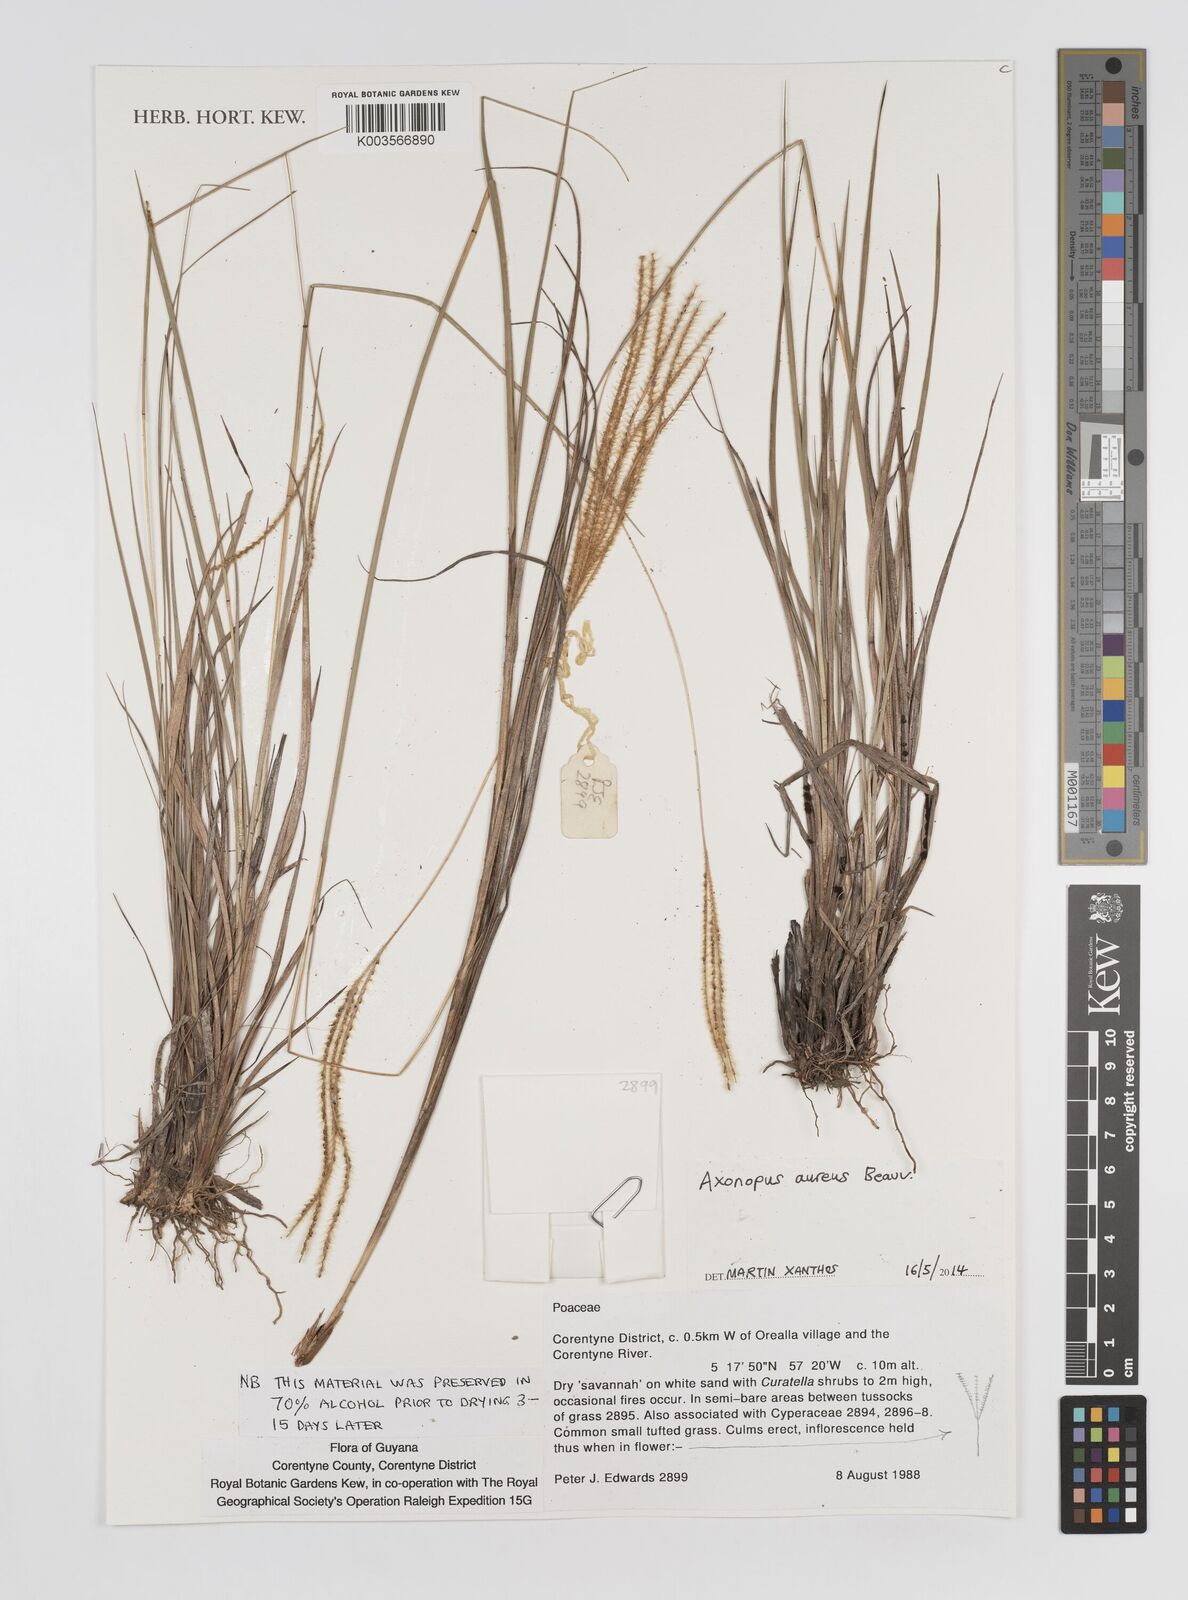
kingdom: Plantae
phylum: Tracheophyta
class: Liliopsida
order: Poales
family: Poaceae
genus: Axonopus
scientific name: Axonopus aureus
